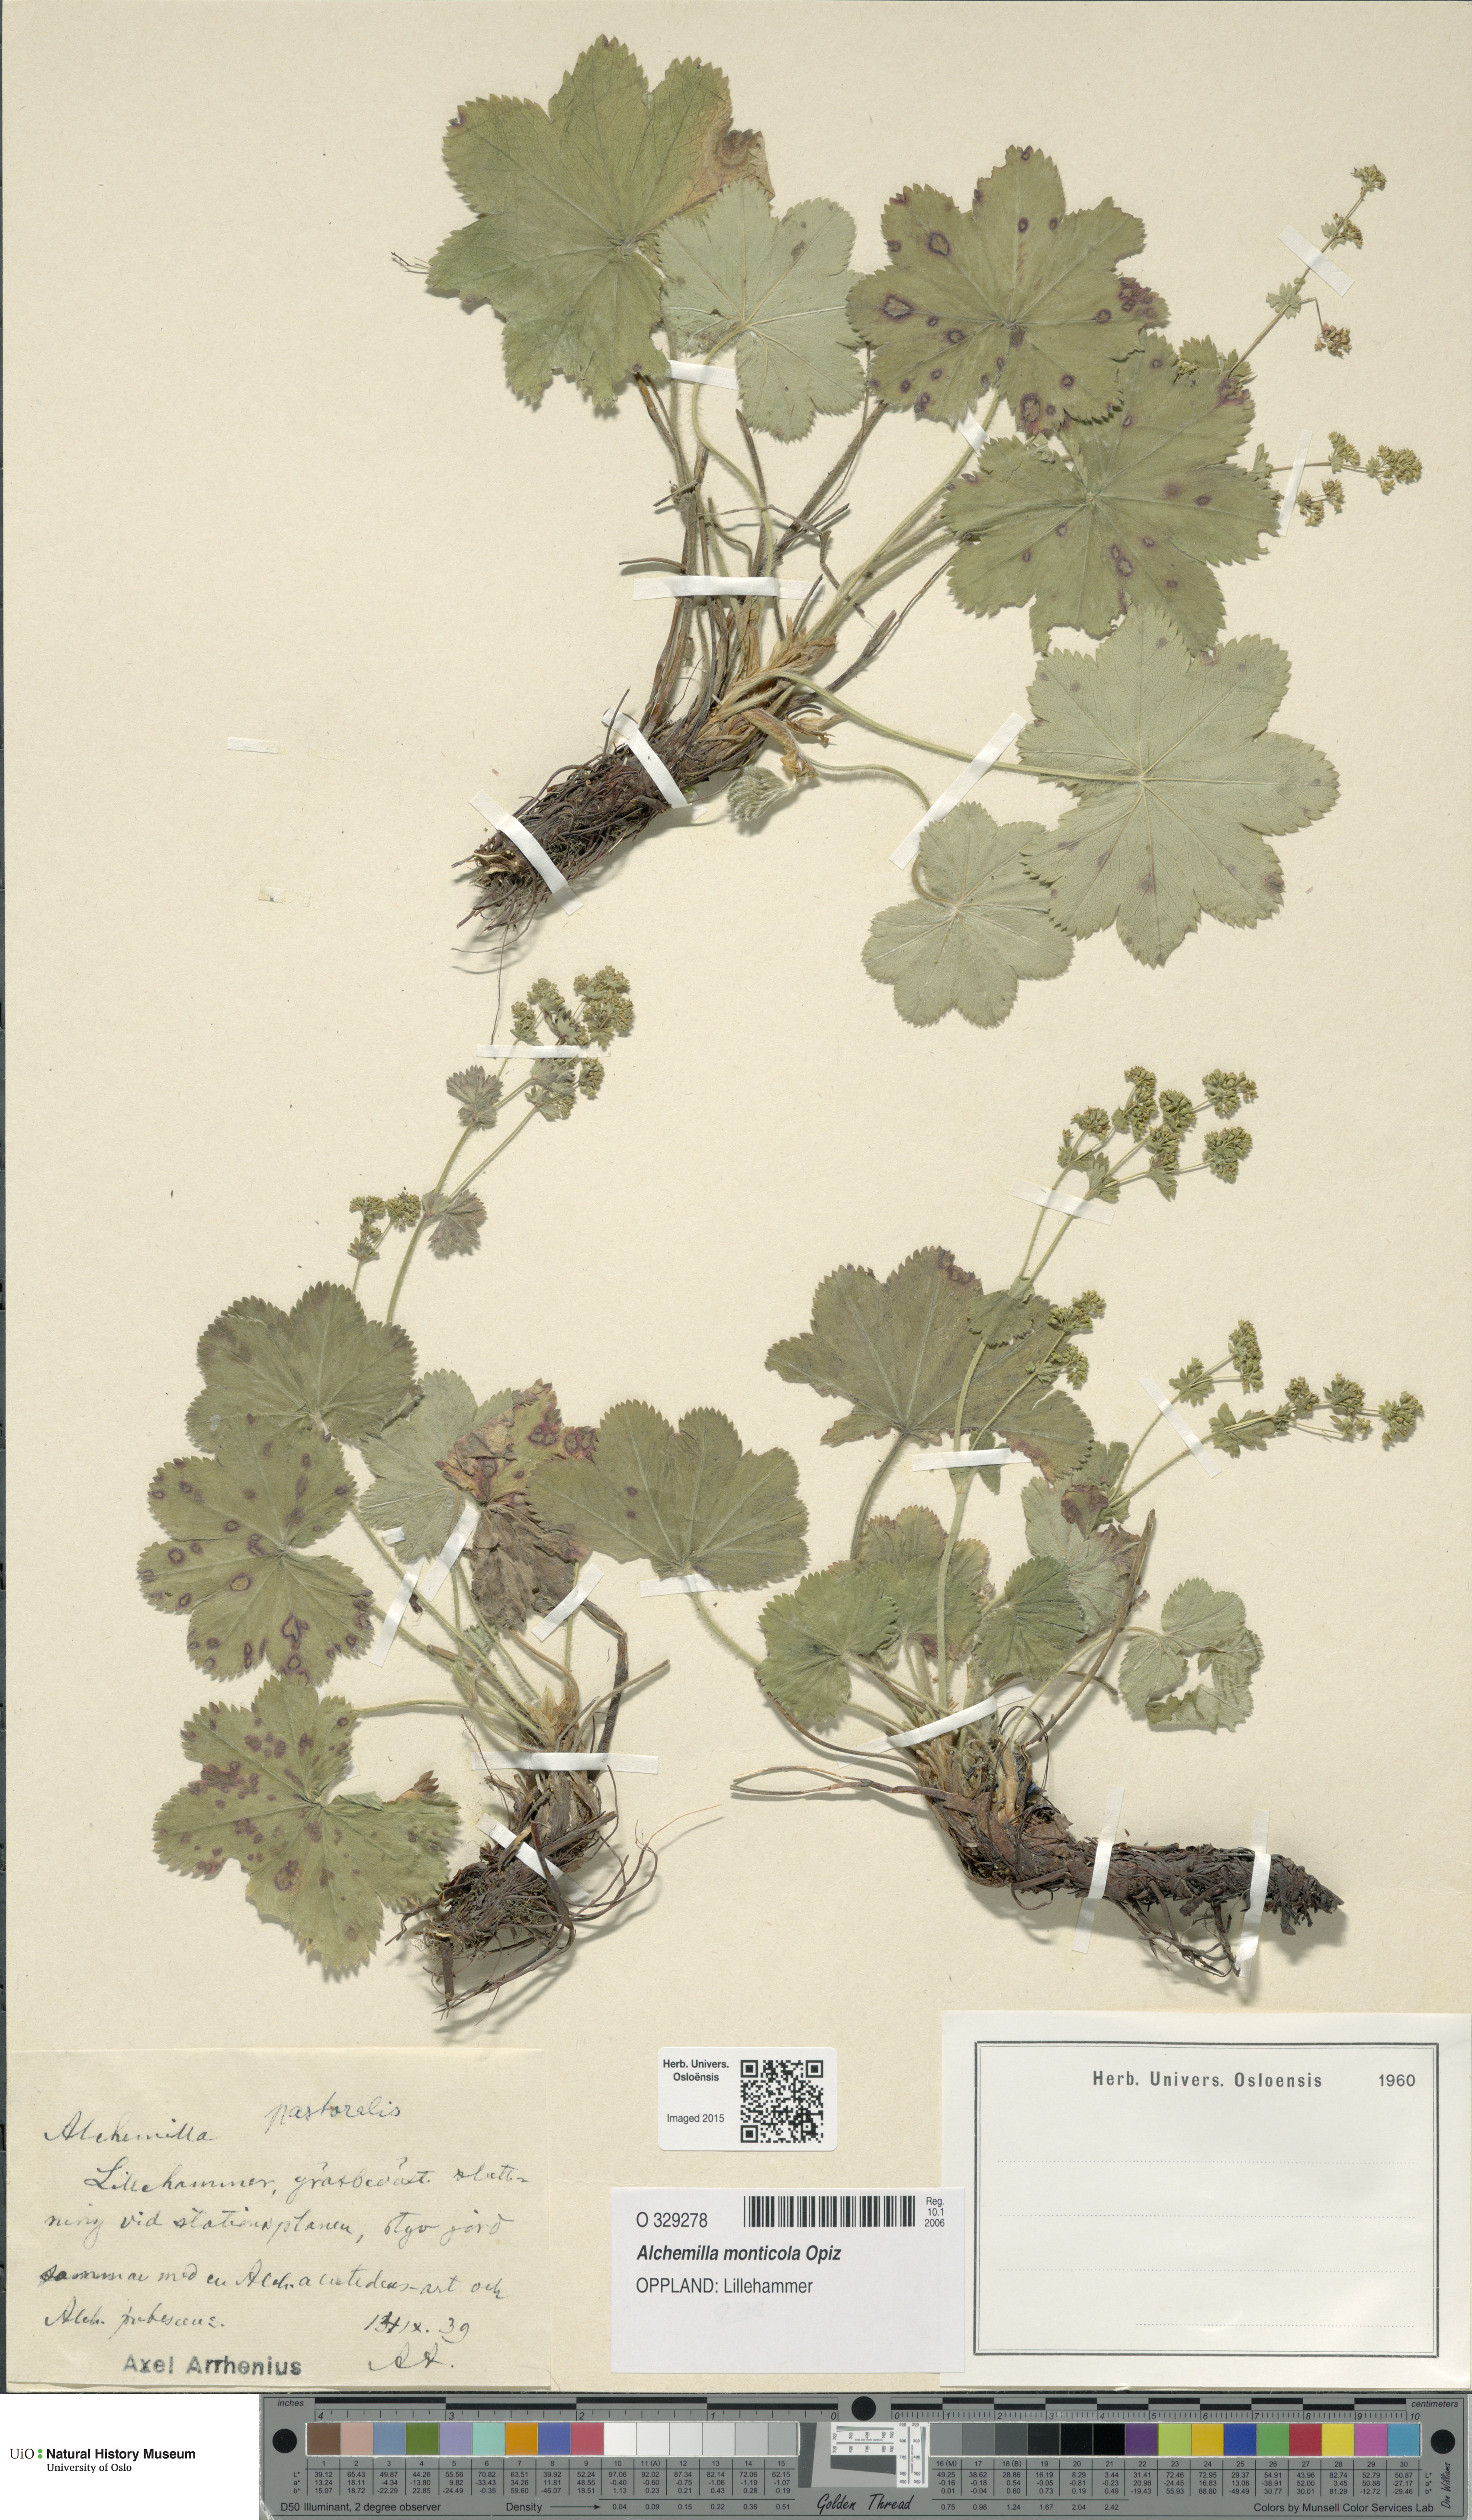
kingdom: Plantae
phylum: Tracheophyta
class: Magnoliopsida
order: Rosales
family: Rosaceae
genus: Alchemilla
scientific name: Alchemilla monticola
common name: Hairy lady's mantle
